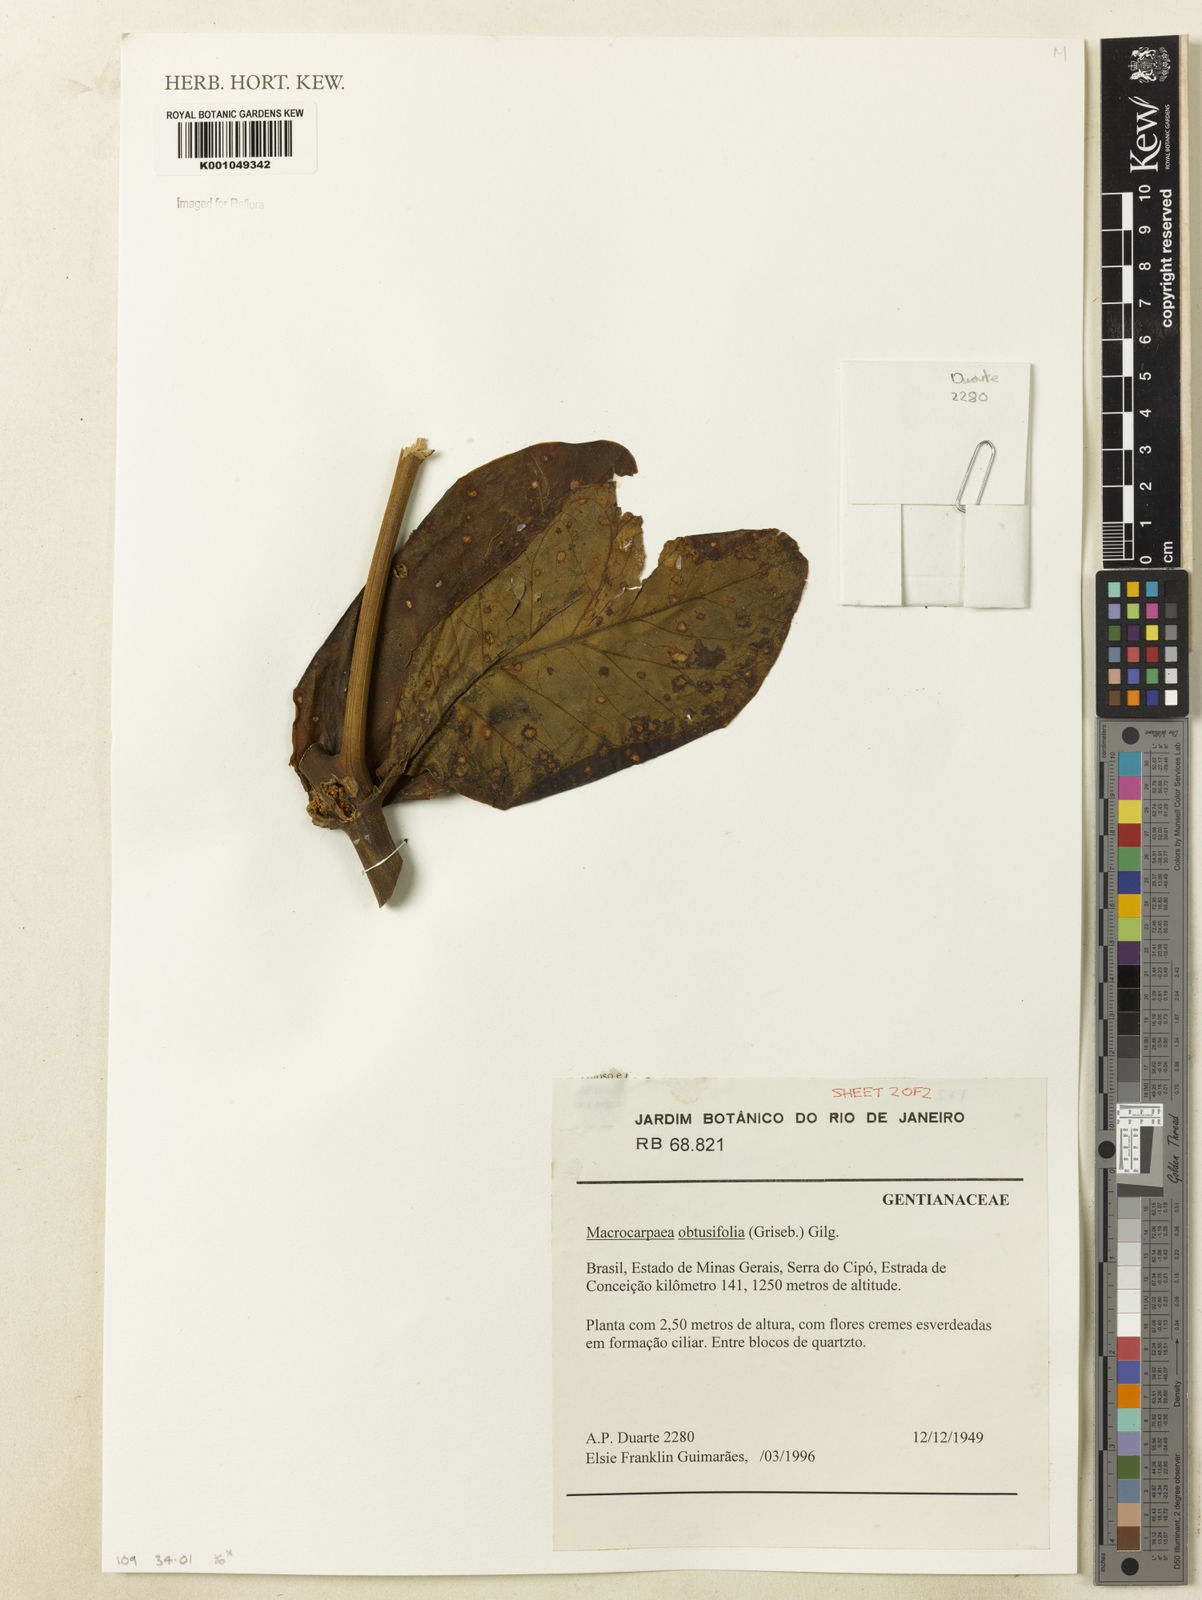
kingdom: Plantae
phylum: Tracheophyta
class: Magnoliopsida
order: Gentianales
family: Gentianaceae
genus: Macrocarpaea
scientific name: Macrocarpaea obtusifolia
